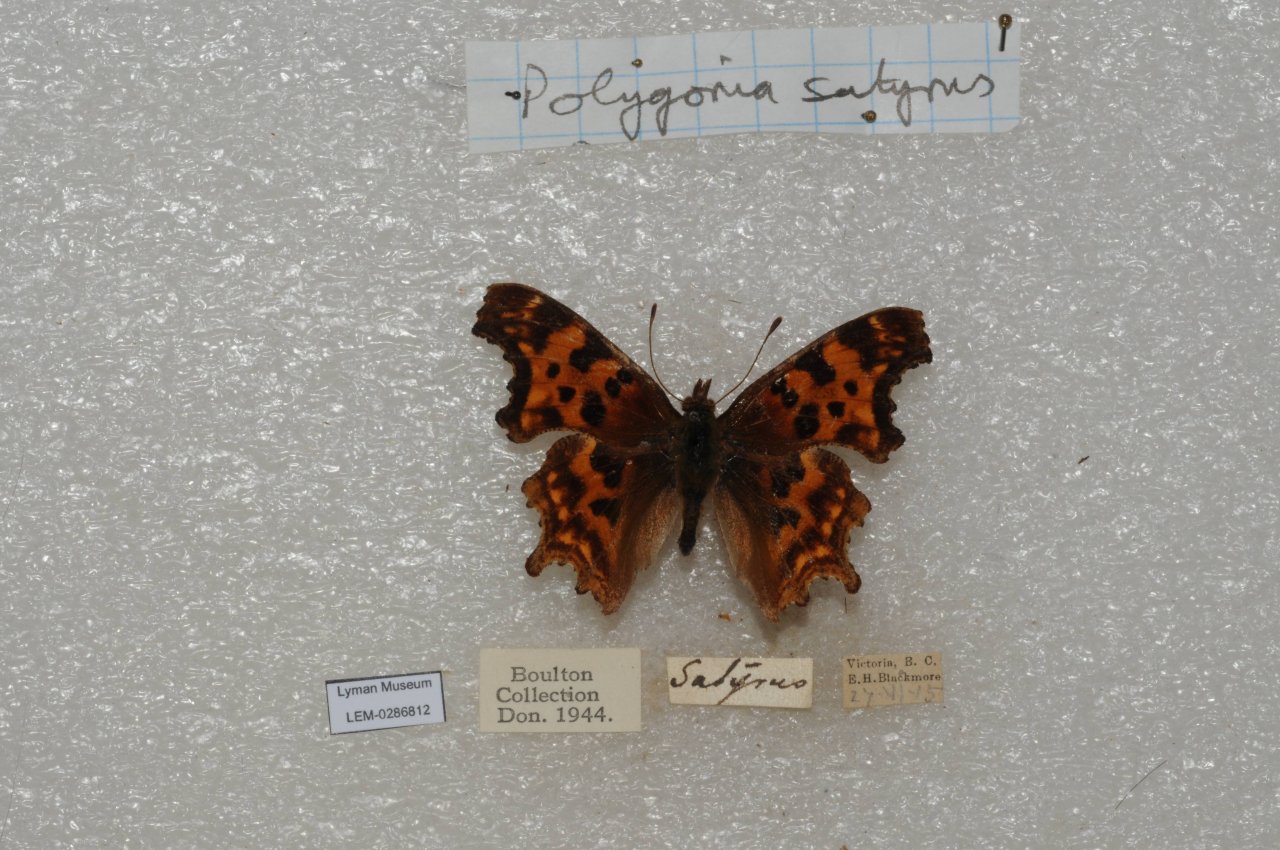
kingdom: Animalia
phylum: Arthropoda
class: Insecta
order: Lepidoptera
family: Nymphalidae
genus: Polygonia
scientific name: Polygonia satyrus
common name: Satyr Comma
